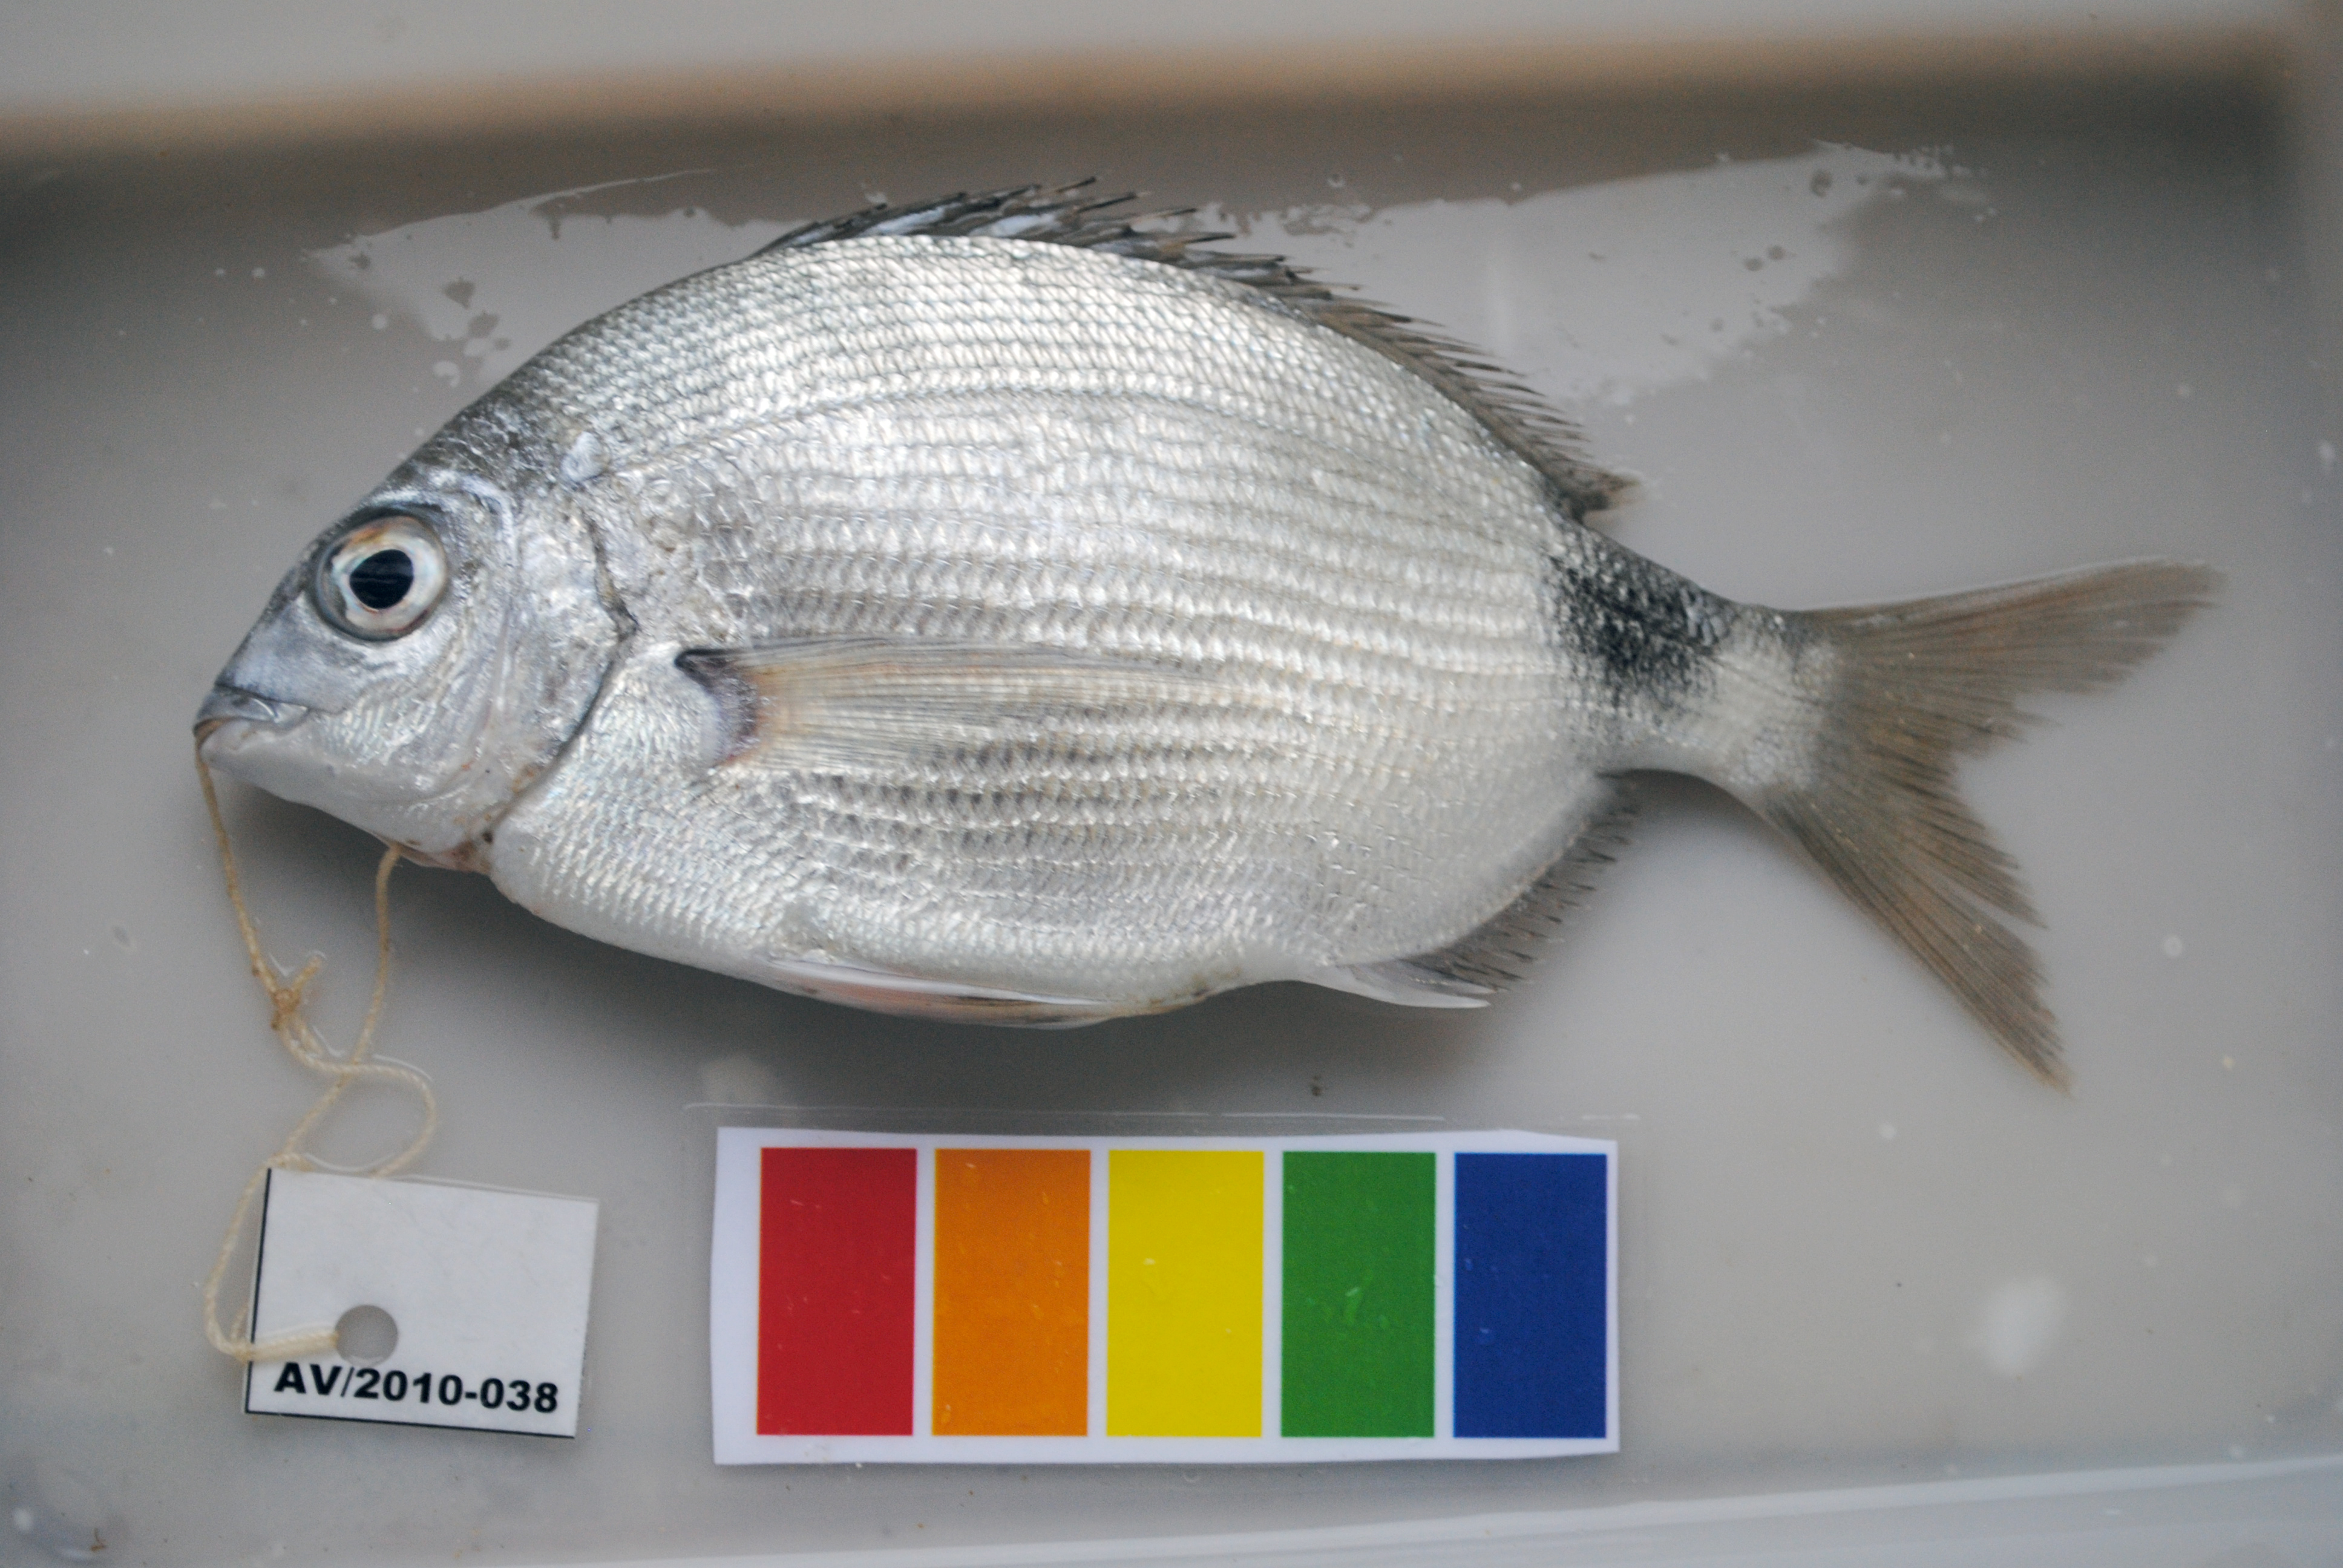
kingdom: Animalia
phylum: Chordata
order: Perciformes
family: Sparidae
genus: Diplodus
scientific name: Diplodus capensis
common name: Blacktail
